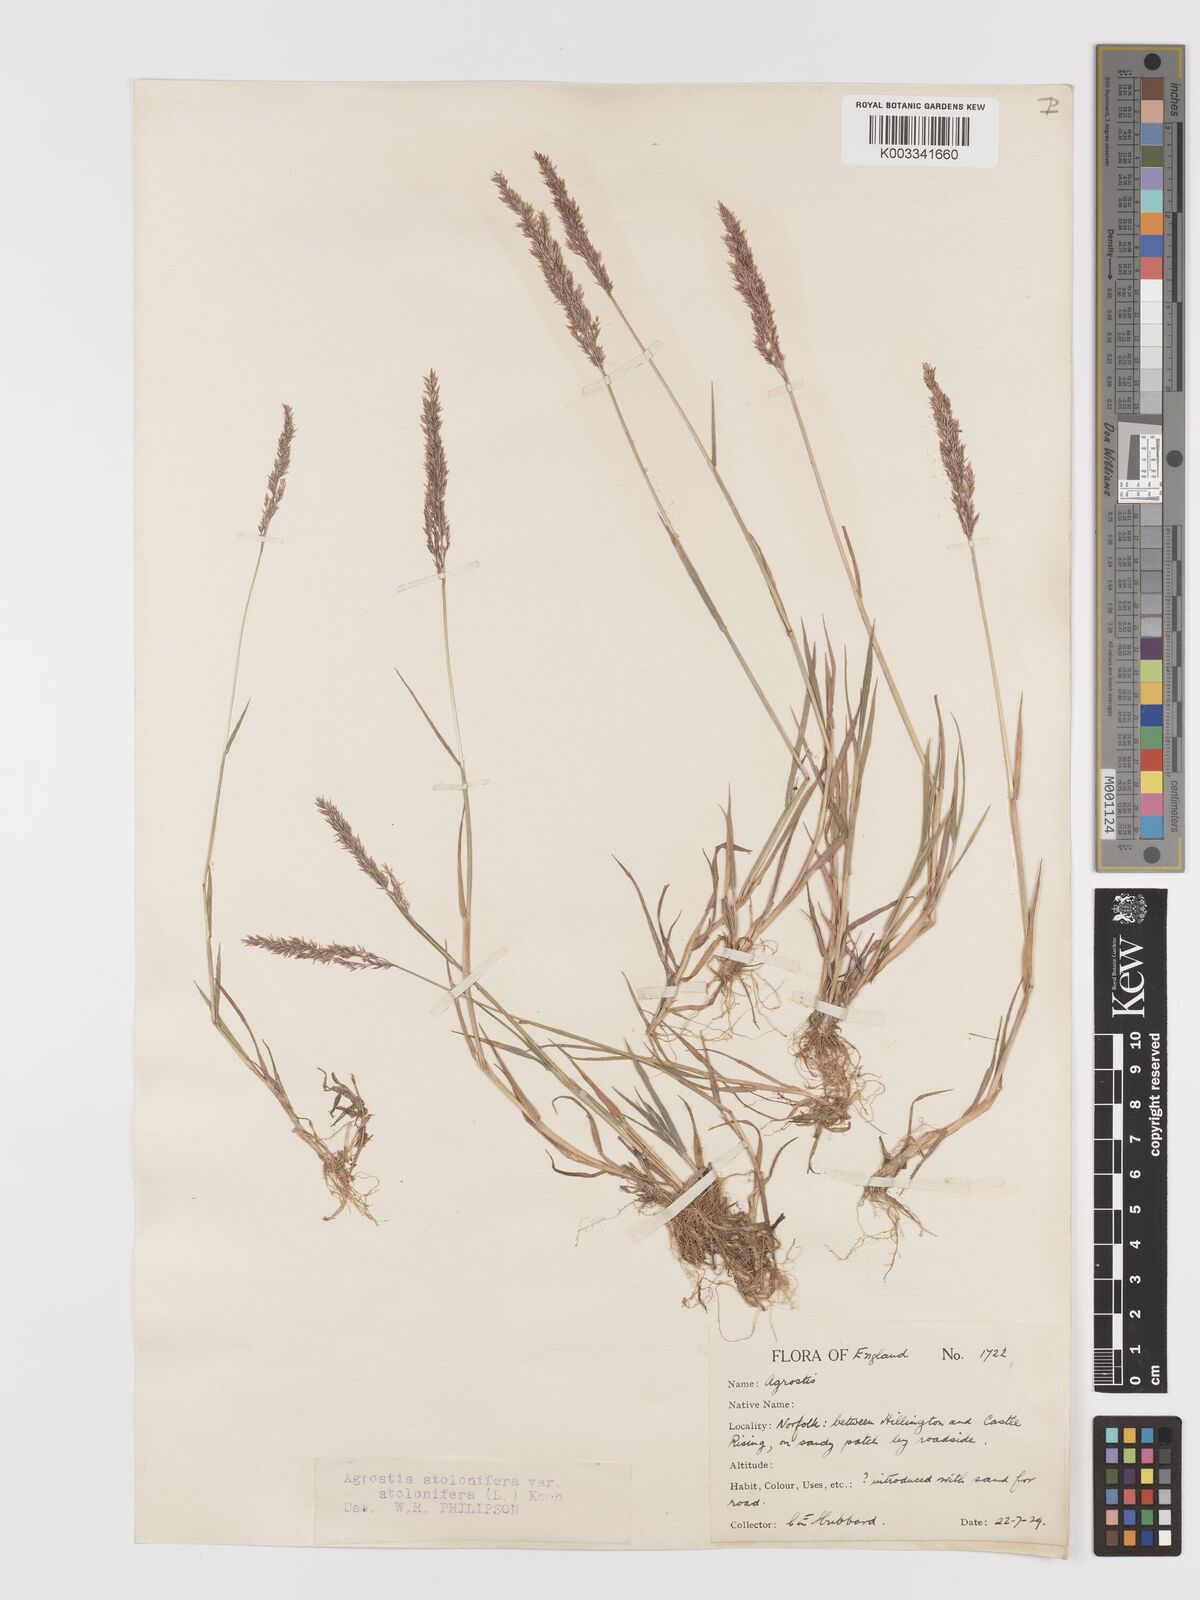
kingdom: Plantae
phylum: Tracheophyta
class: Liliopsida
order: Poales
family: Poaceae
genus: Agrostis
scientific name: Agrostis stolonifera
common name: Creeping bentgrass
